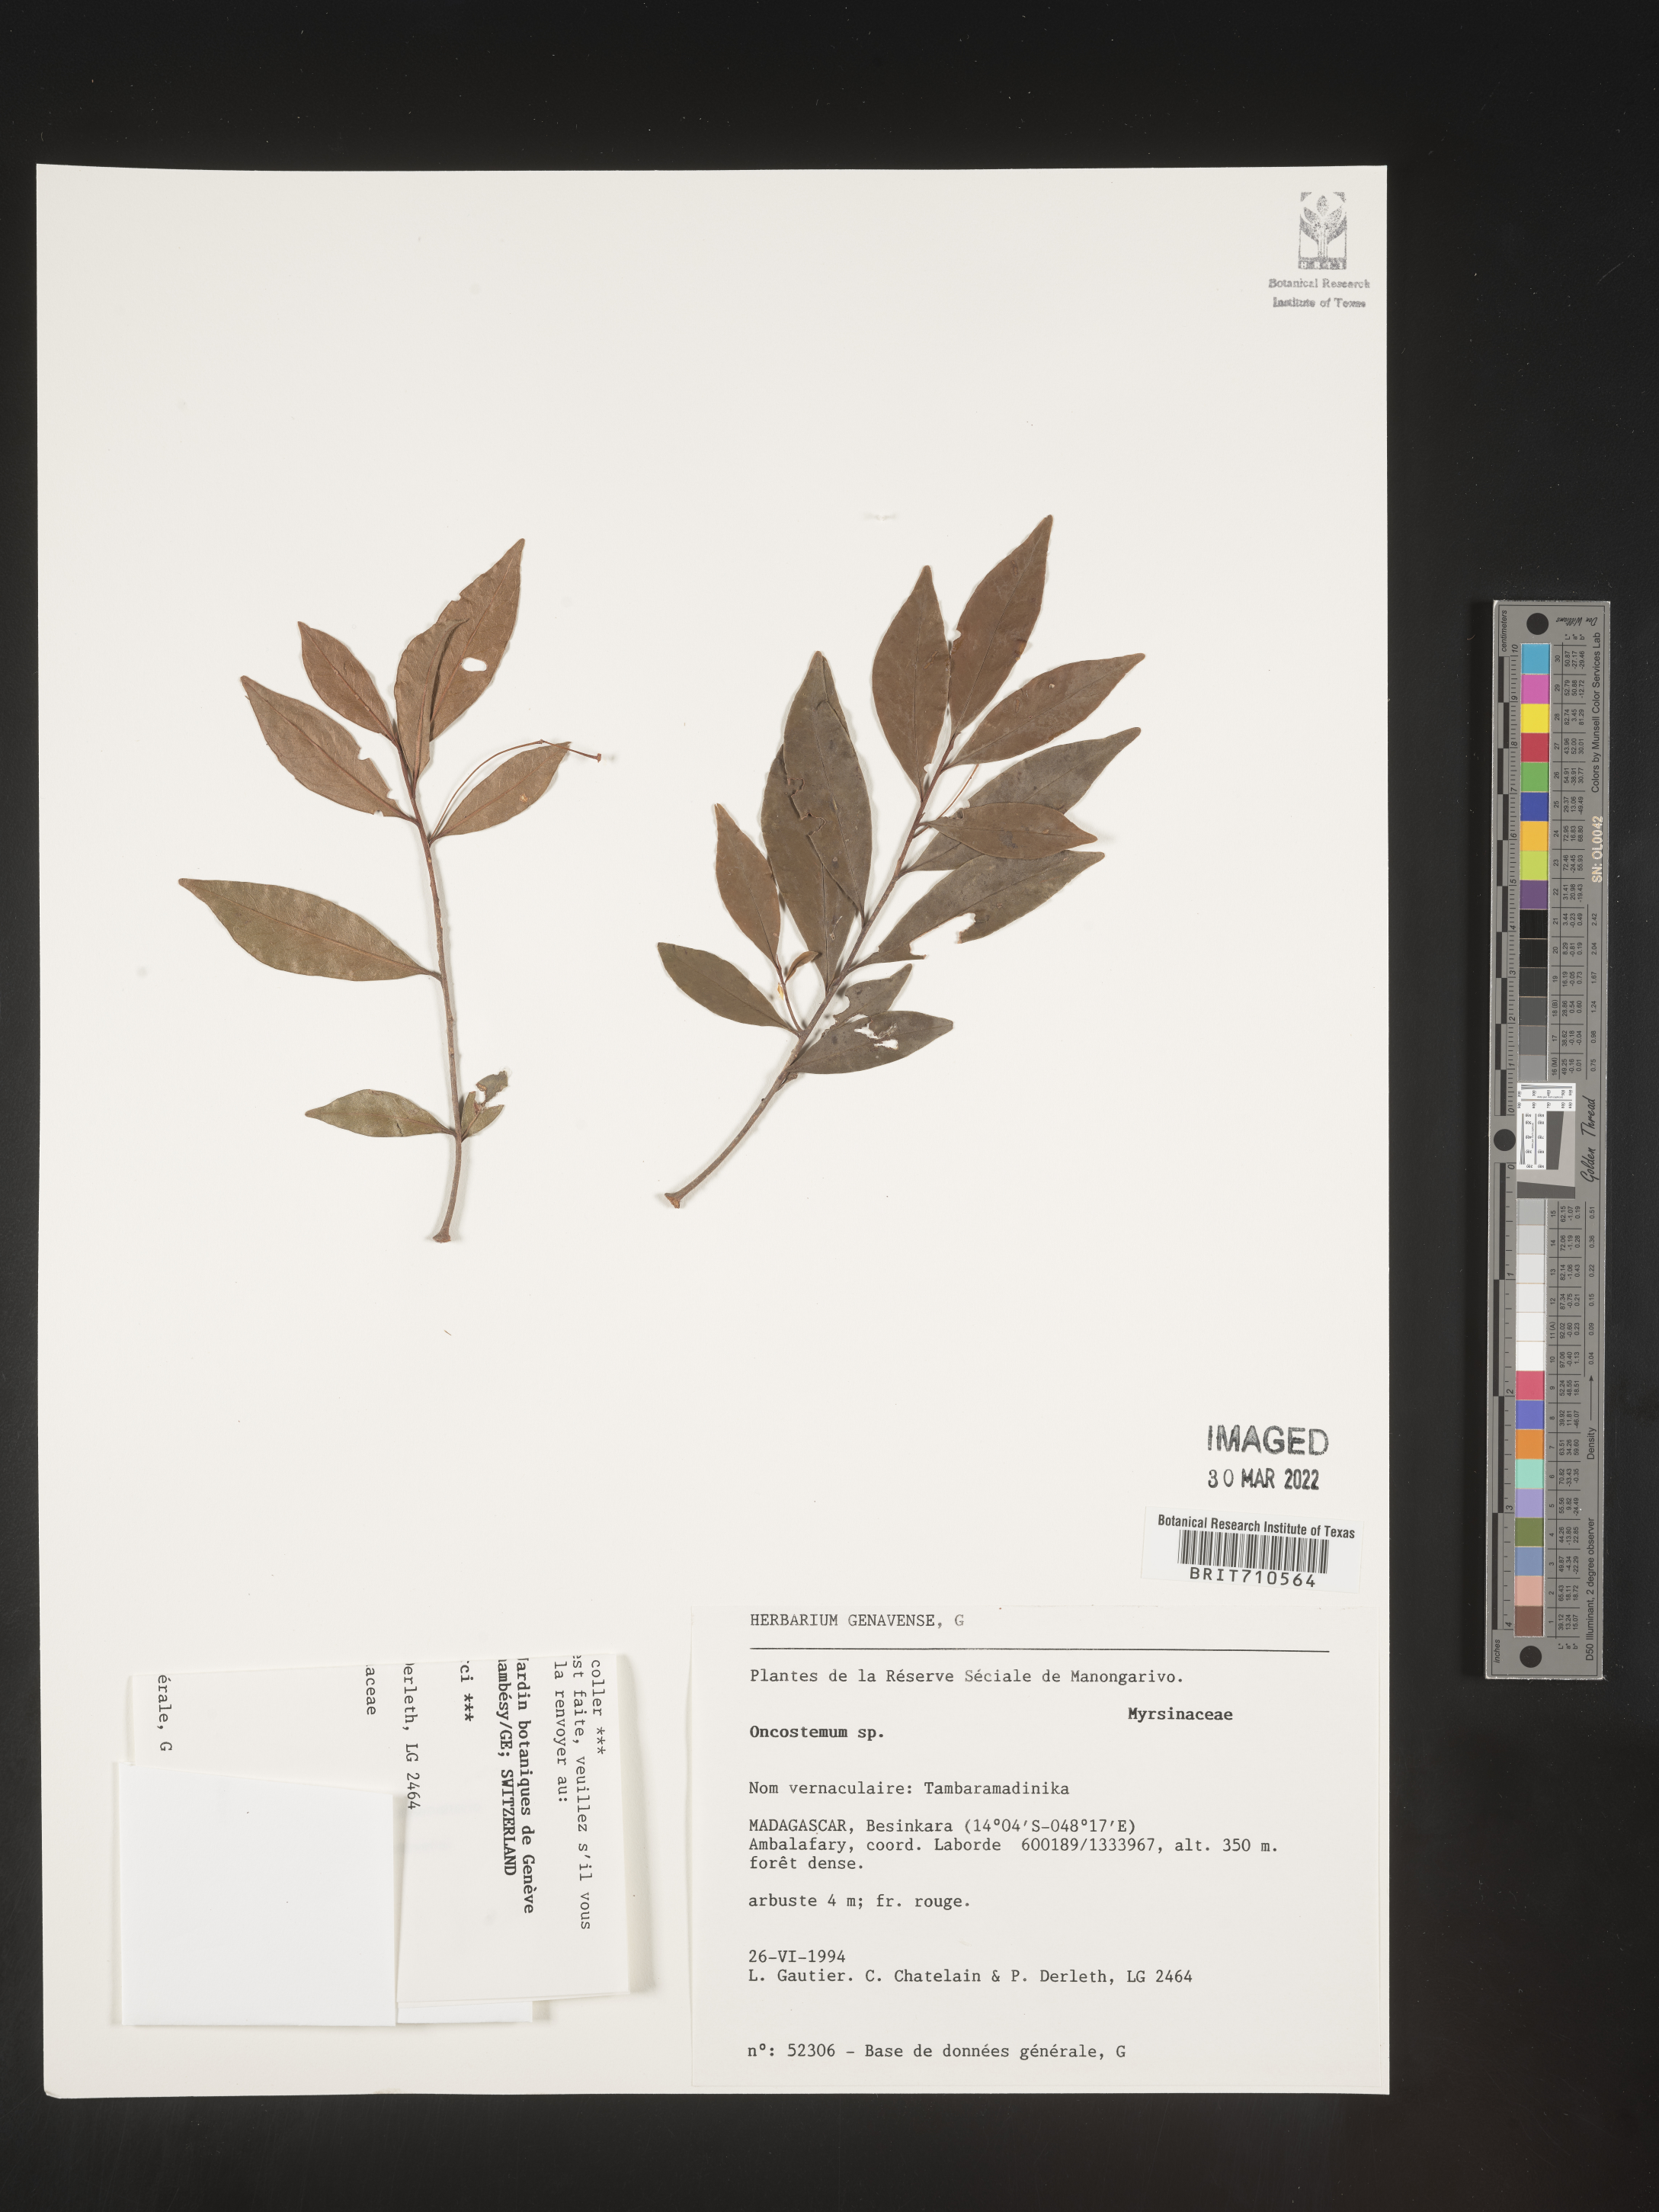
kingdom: Plantae
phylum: Tracheophyta
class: Magnoliopsida
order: Ericales
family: Primulaceae
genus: Oncostemum
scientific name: Oncostemum
